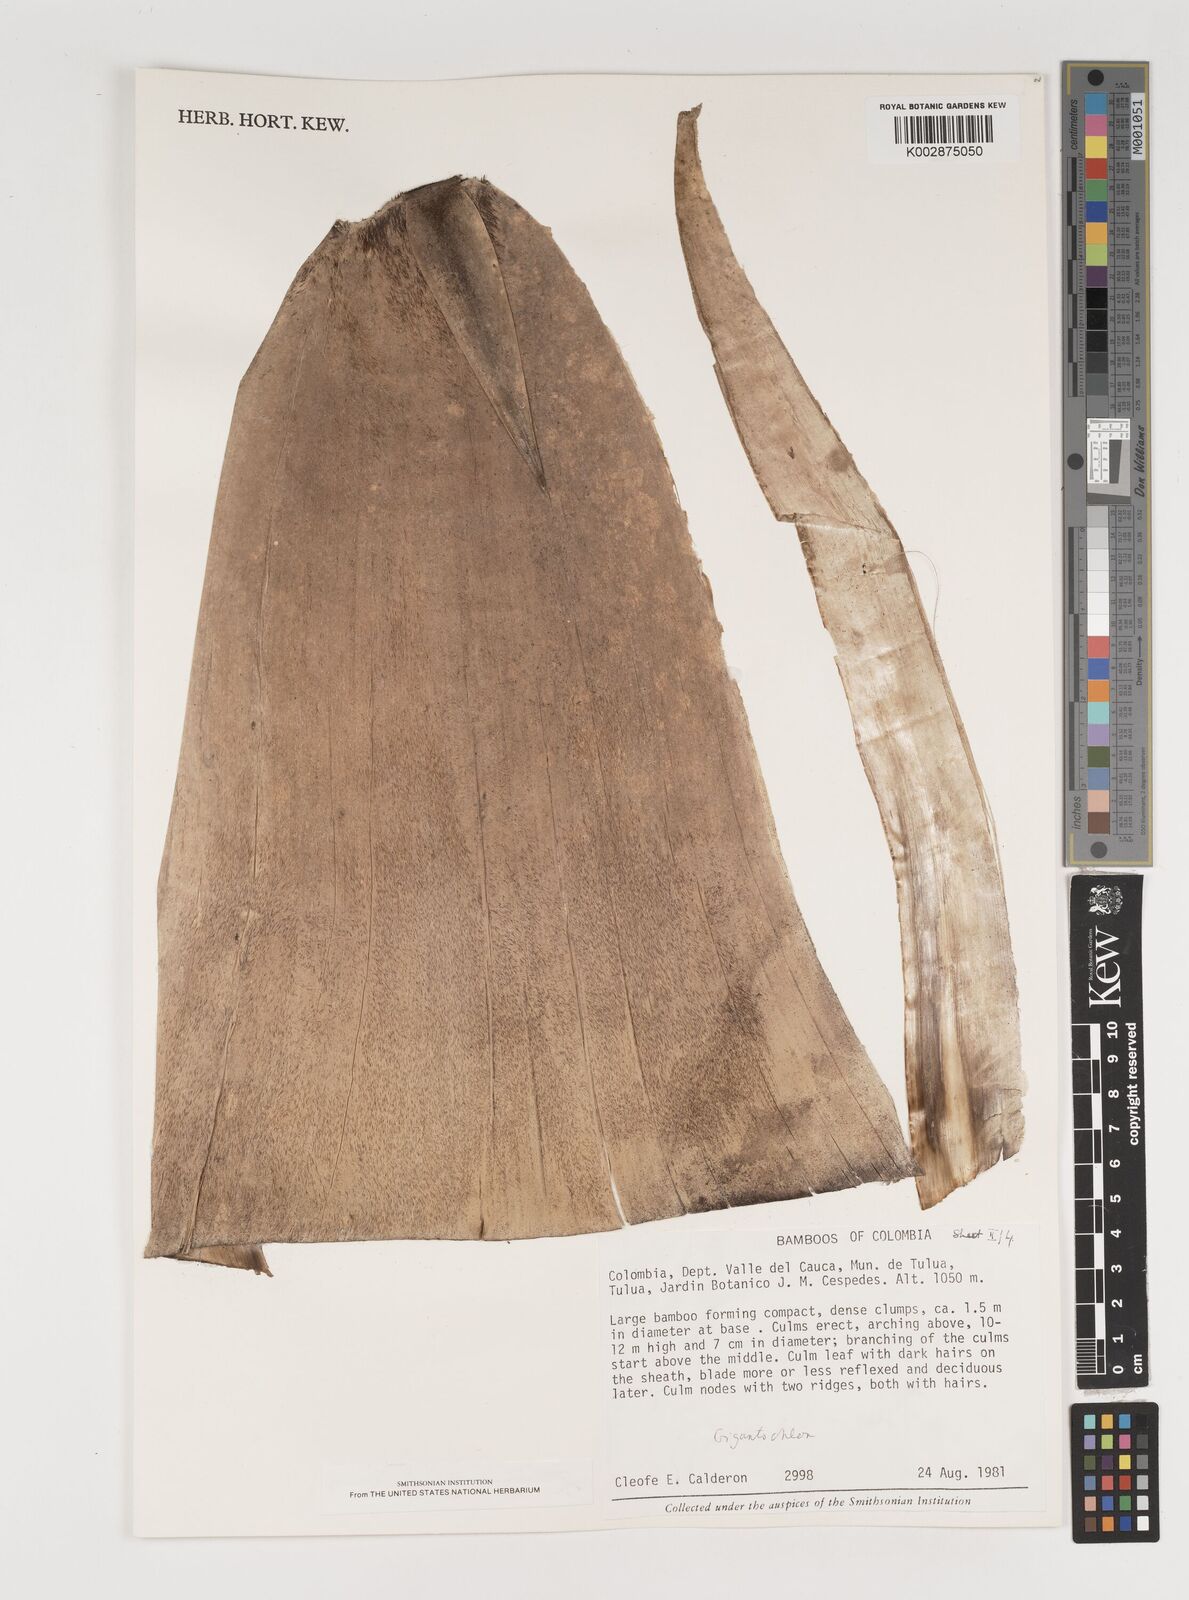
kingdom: Plantae
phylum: Tracheophyta
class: Liliopsida
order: Poales
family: Poaceae
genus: Gigantochloa
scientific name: Gigantochloa
